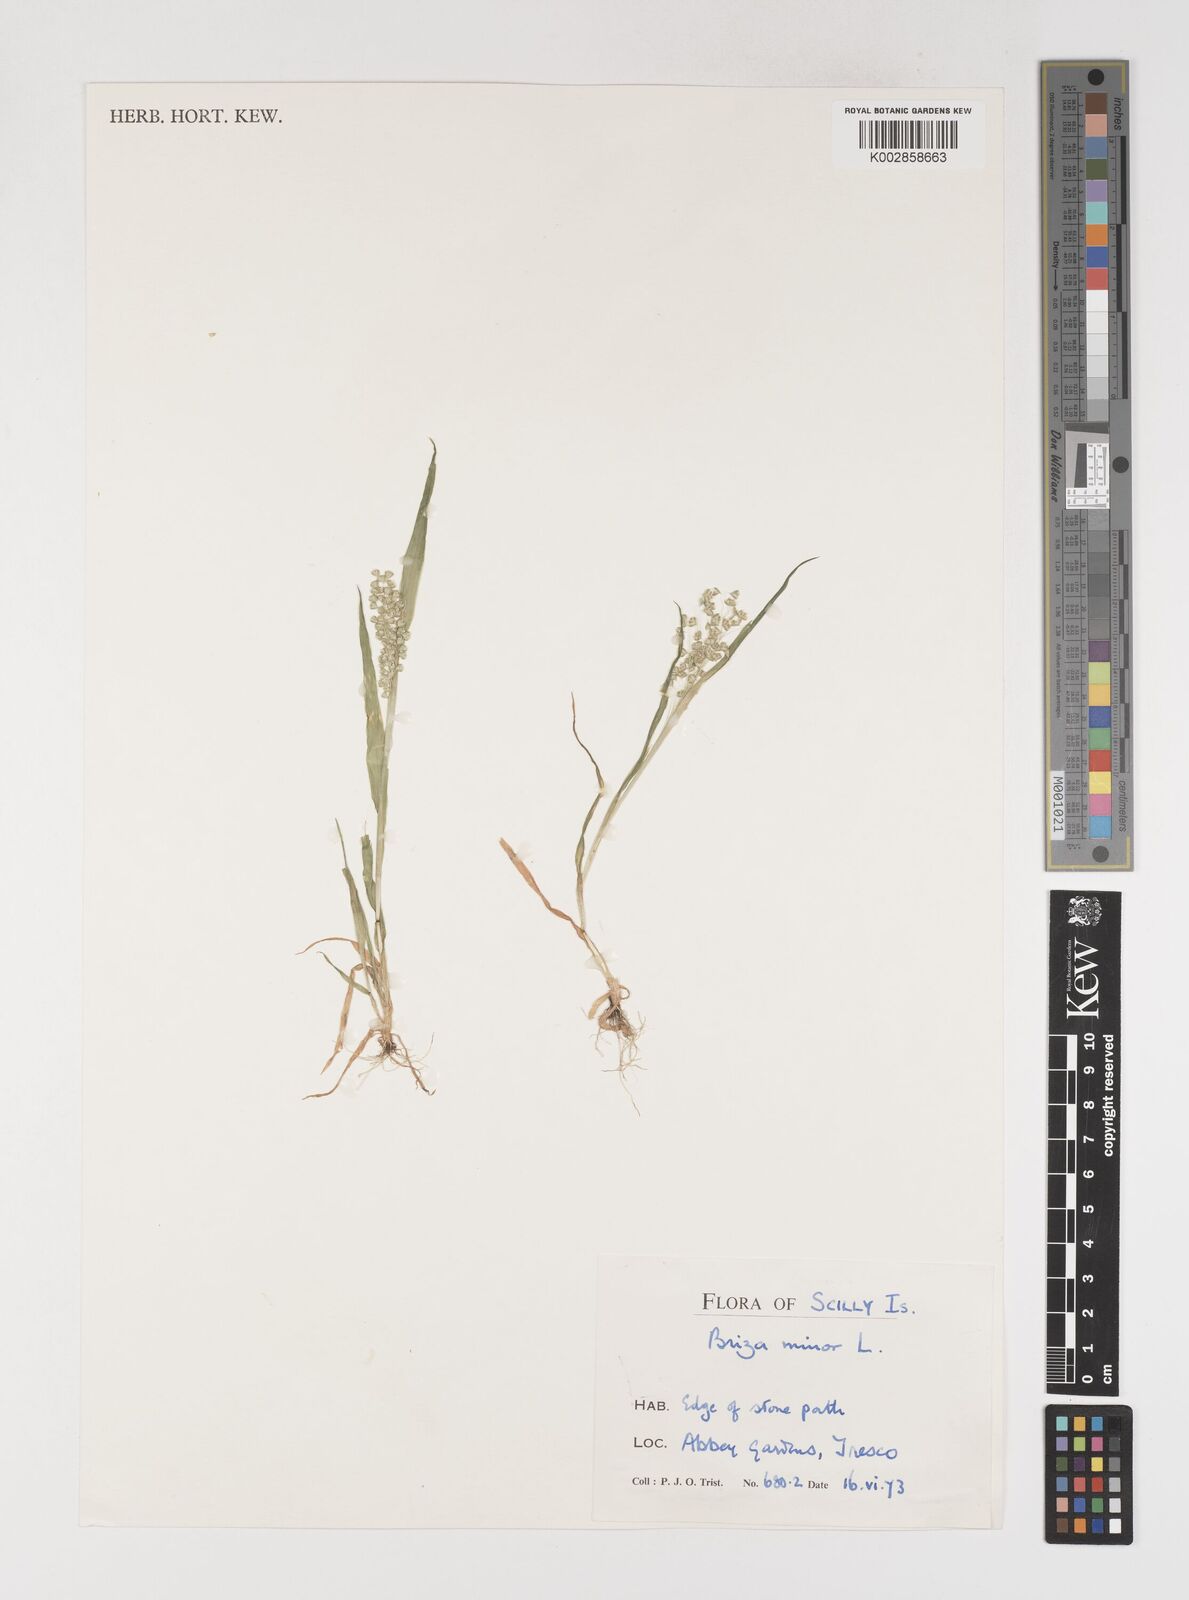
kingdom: Plantae
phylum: Tracheophyta
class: Liliopsida
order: Poales
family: Poaceae
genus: Briza
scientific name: Briza minor
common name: Lesser quaking-grass
